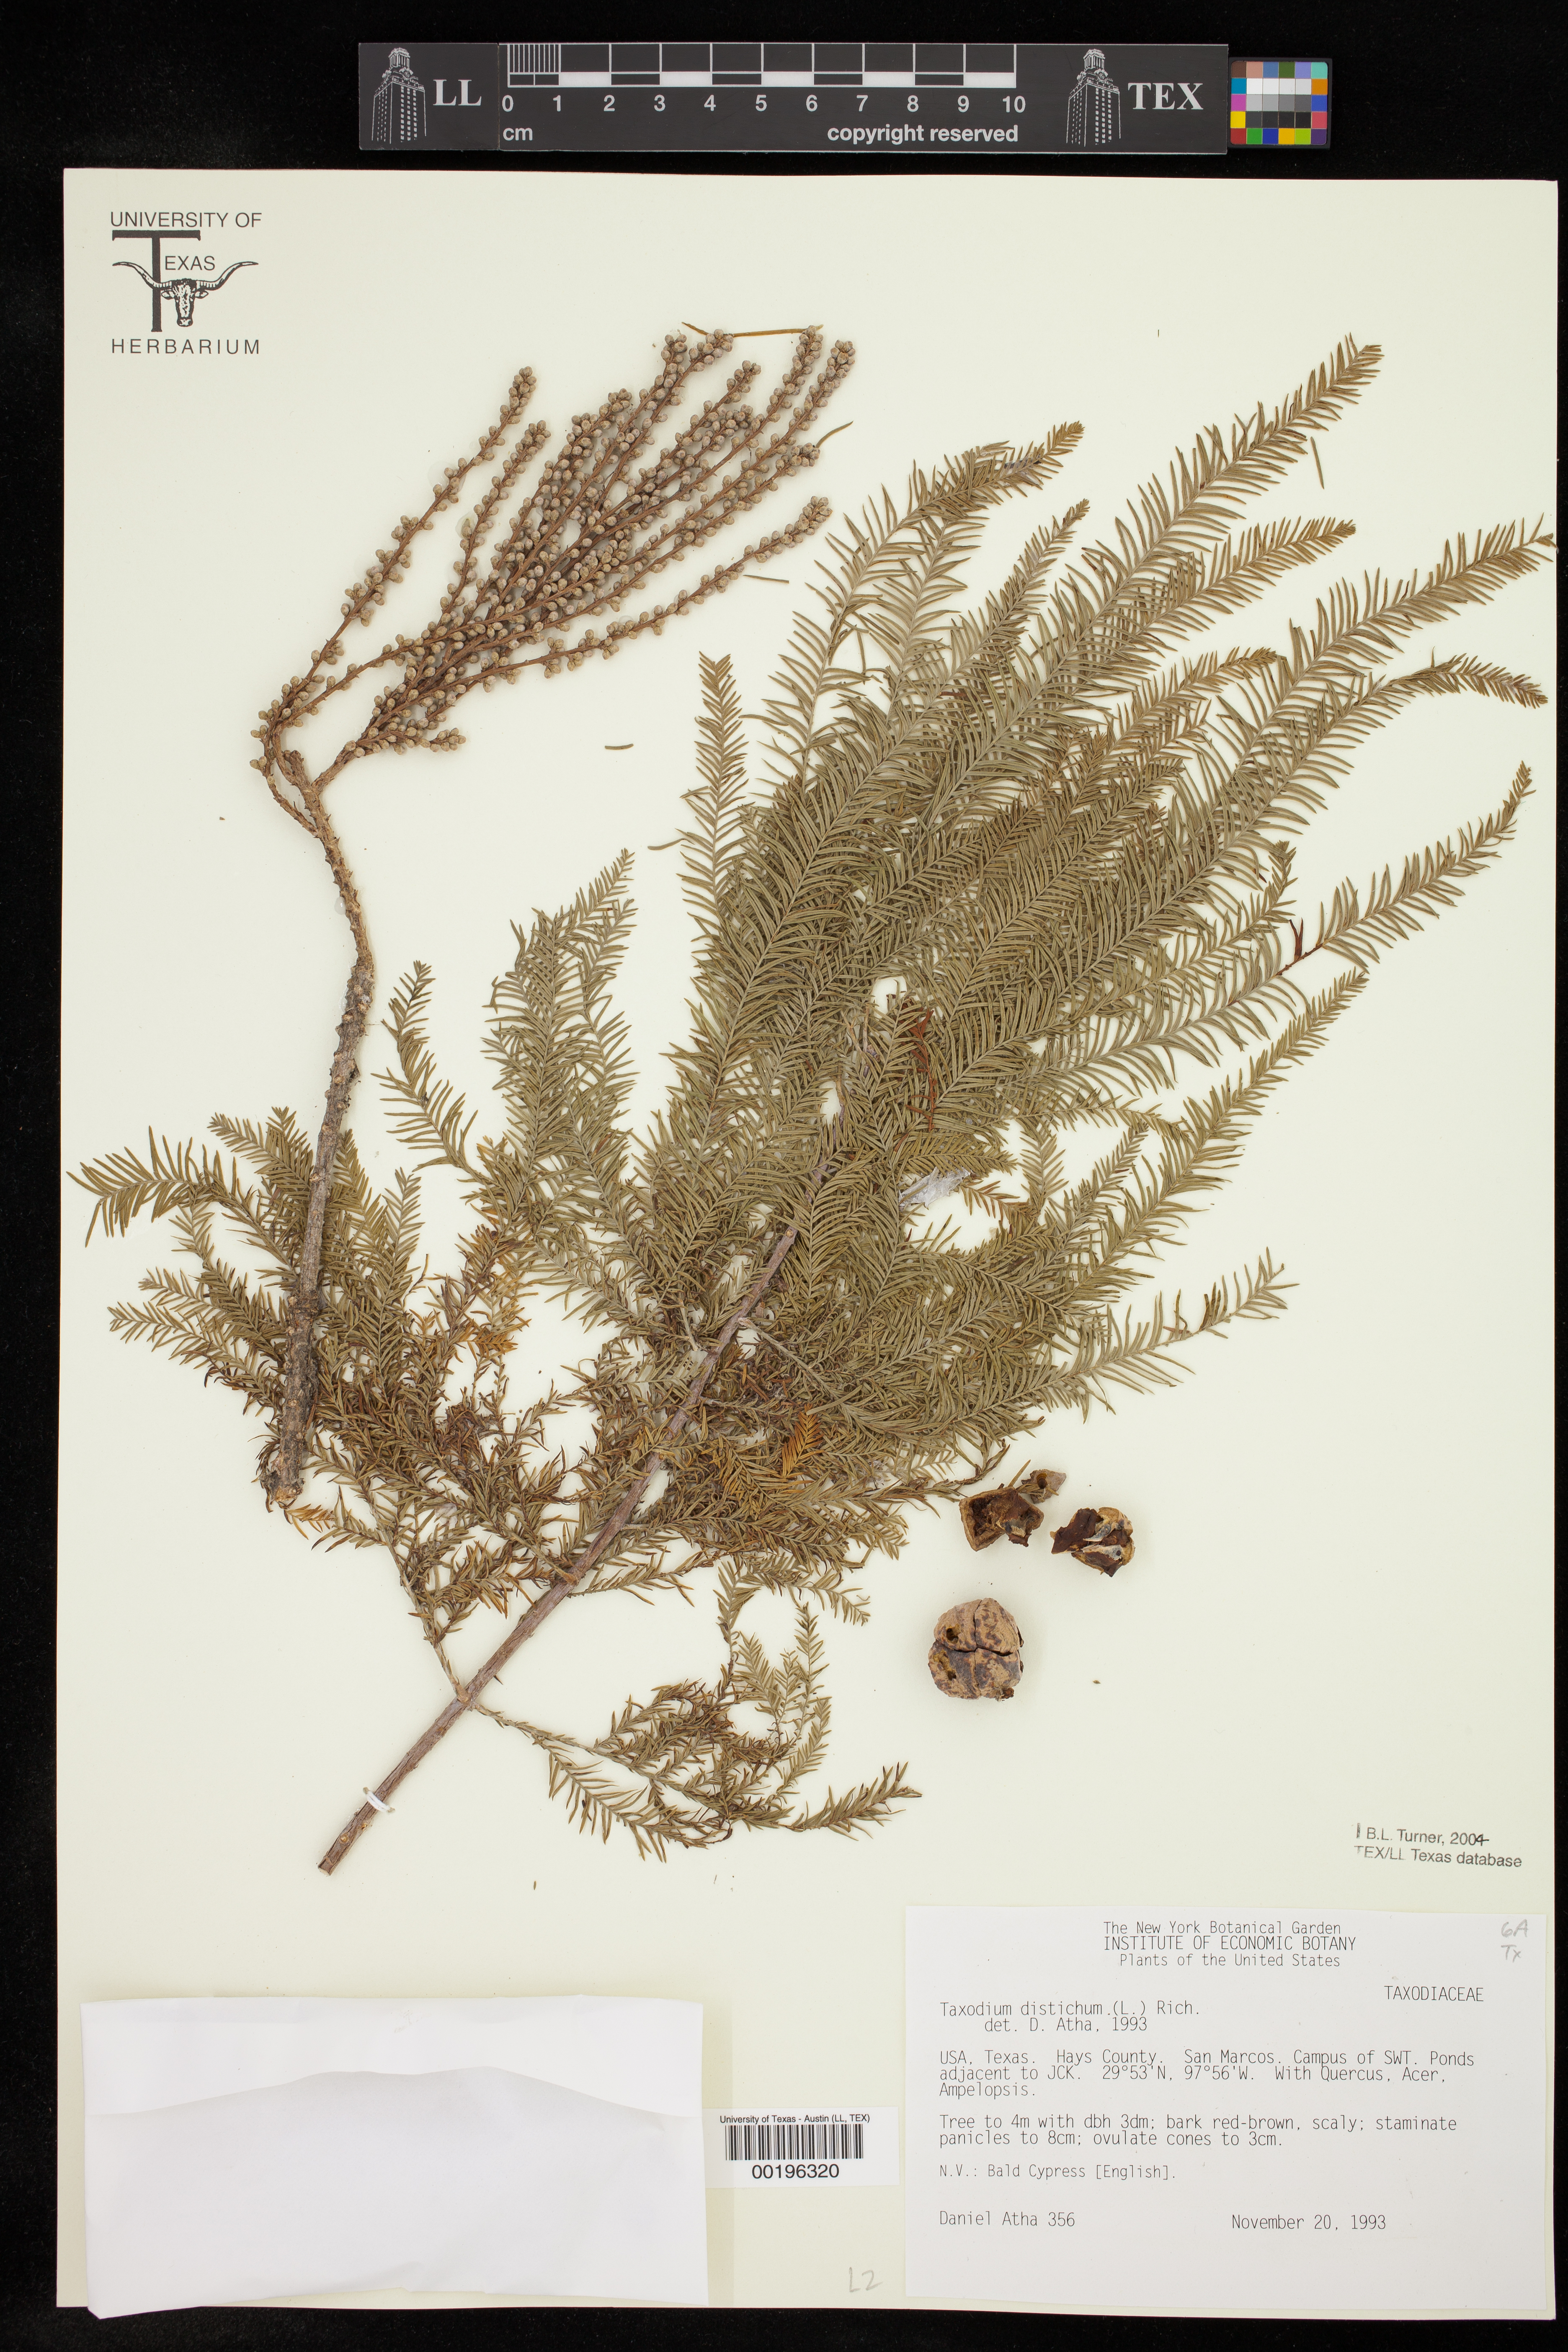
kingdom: Plantae
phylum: Tracheophyta
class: Pinopsida
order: Pinales
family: Cupressaceae
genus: Taxodium
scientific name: Taxodium distichum
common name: Bald cypress
